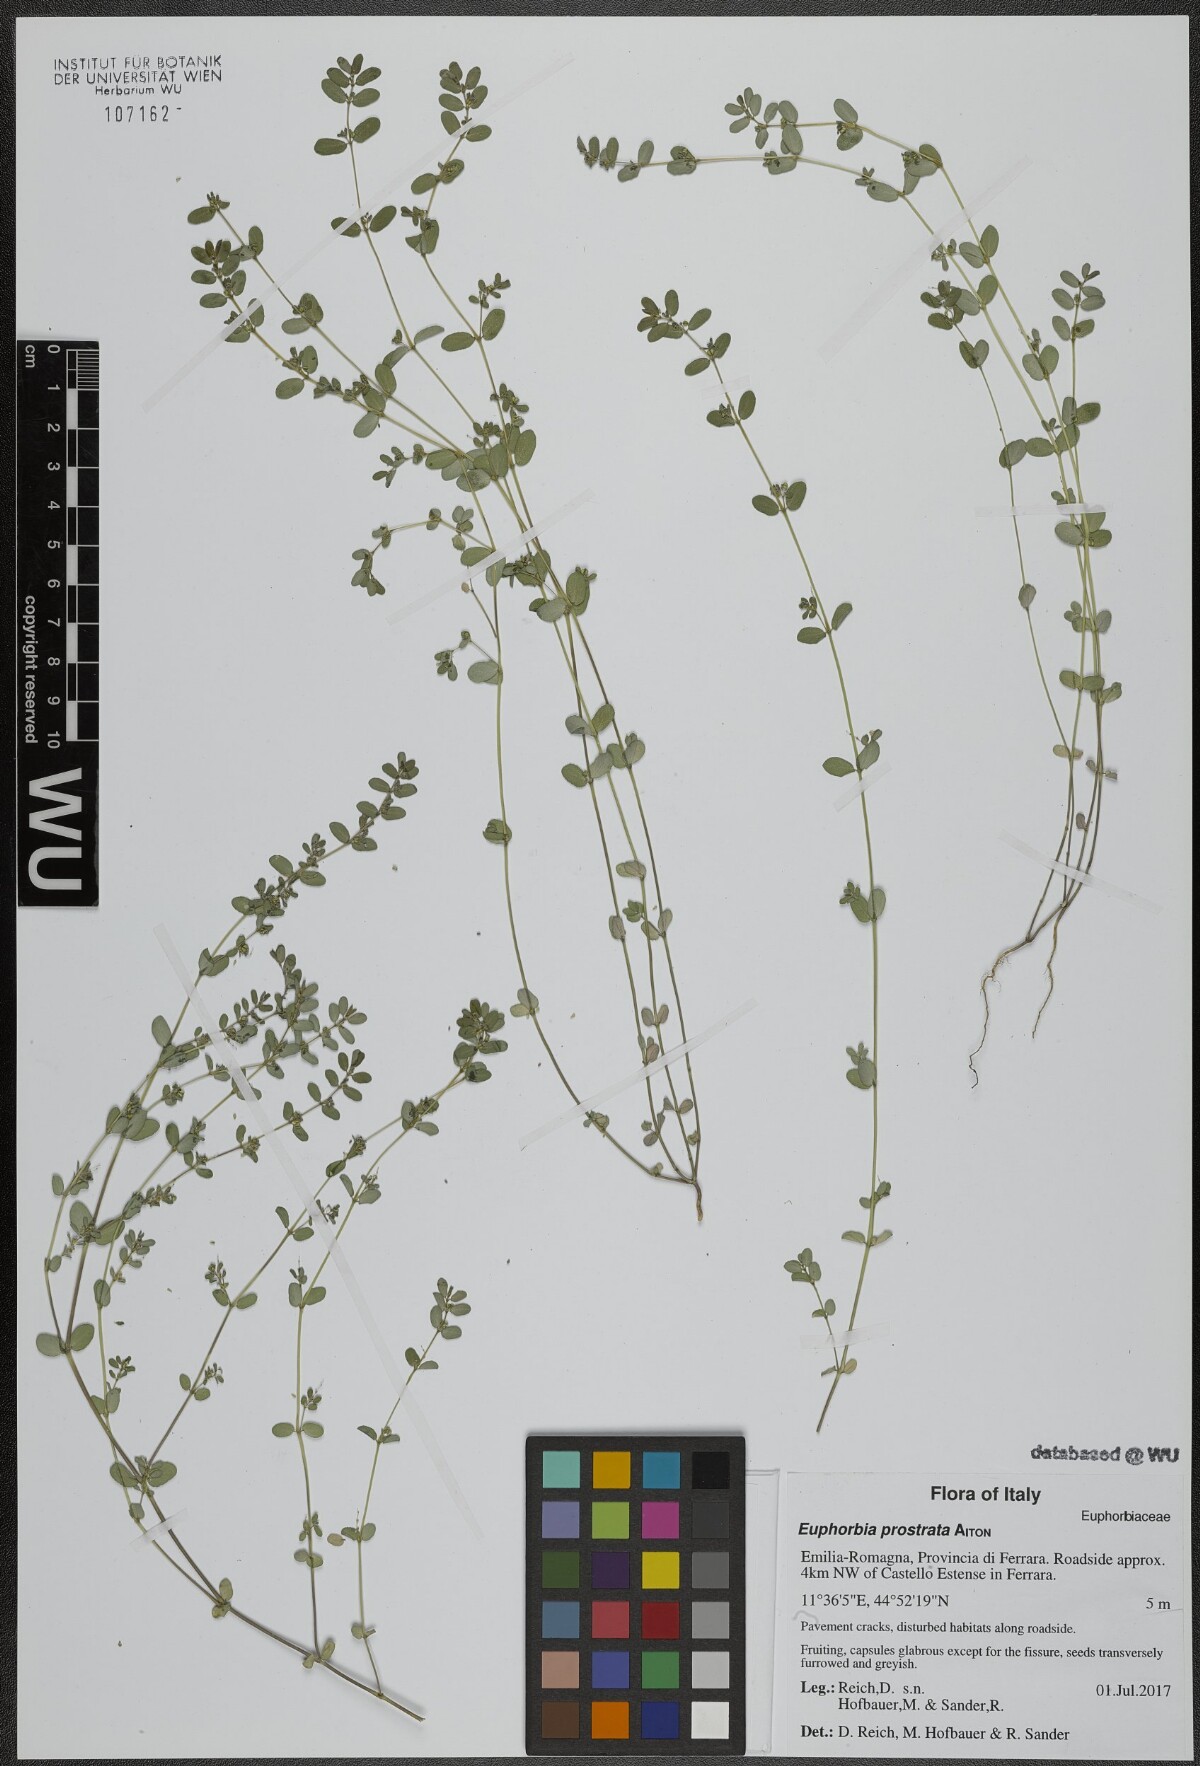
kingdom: Plantae
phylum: Tracheophyta
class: Magnoliopsida
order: Malpighiales
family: Euphorbiaceae
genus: Euphorbia
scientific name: Euphorbia prostrata
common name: Prostrate sandmat
